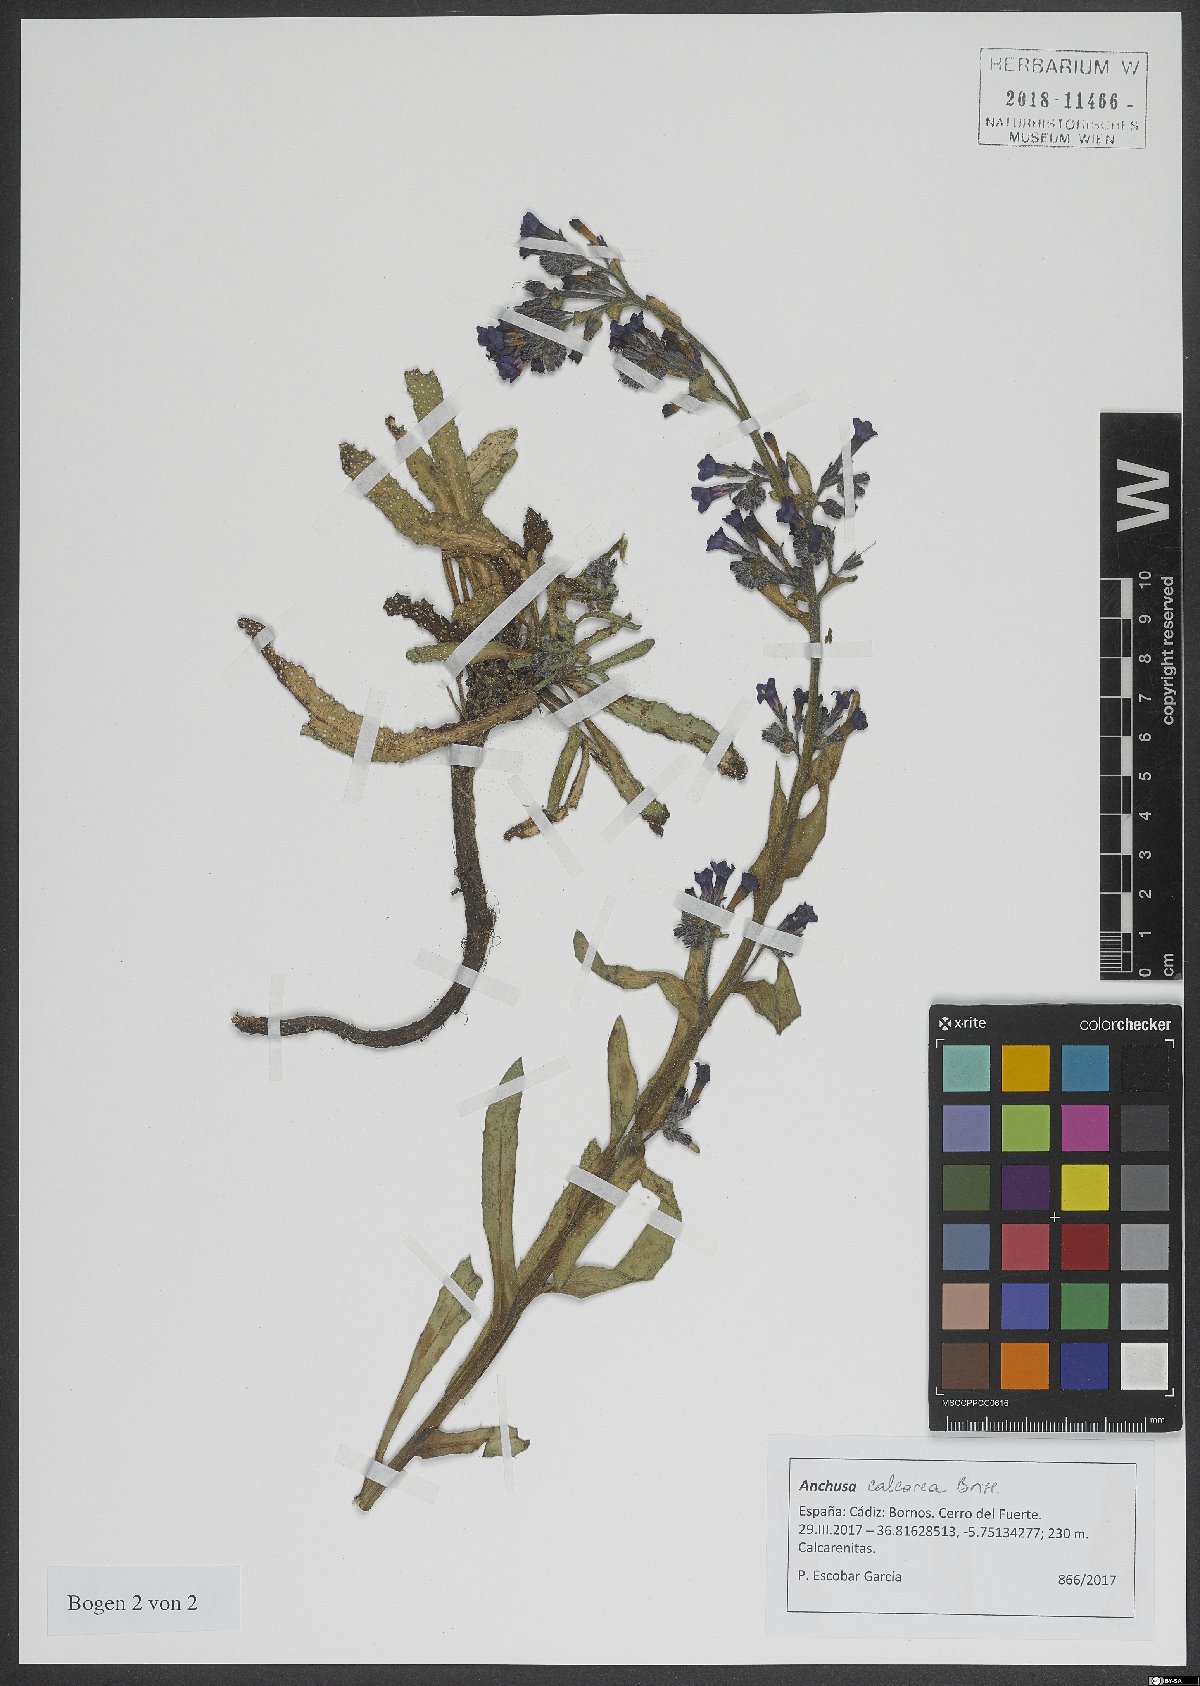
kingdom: Plantae
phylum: Tracheophyta
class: Magnoliopsida
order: Boraginales
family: Boraginaceae
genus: Anchusa
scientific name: Anchusa calcarea
